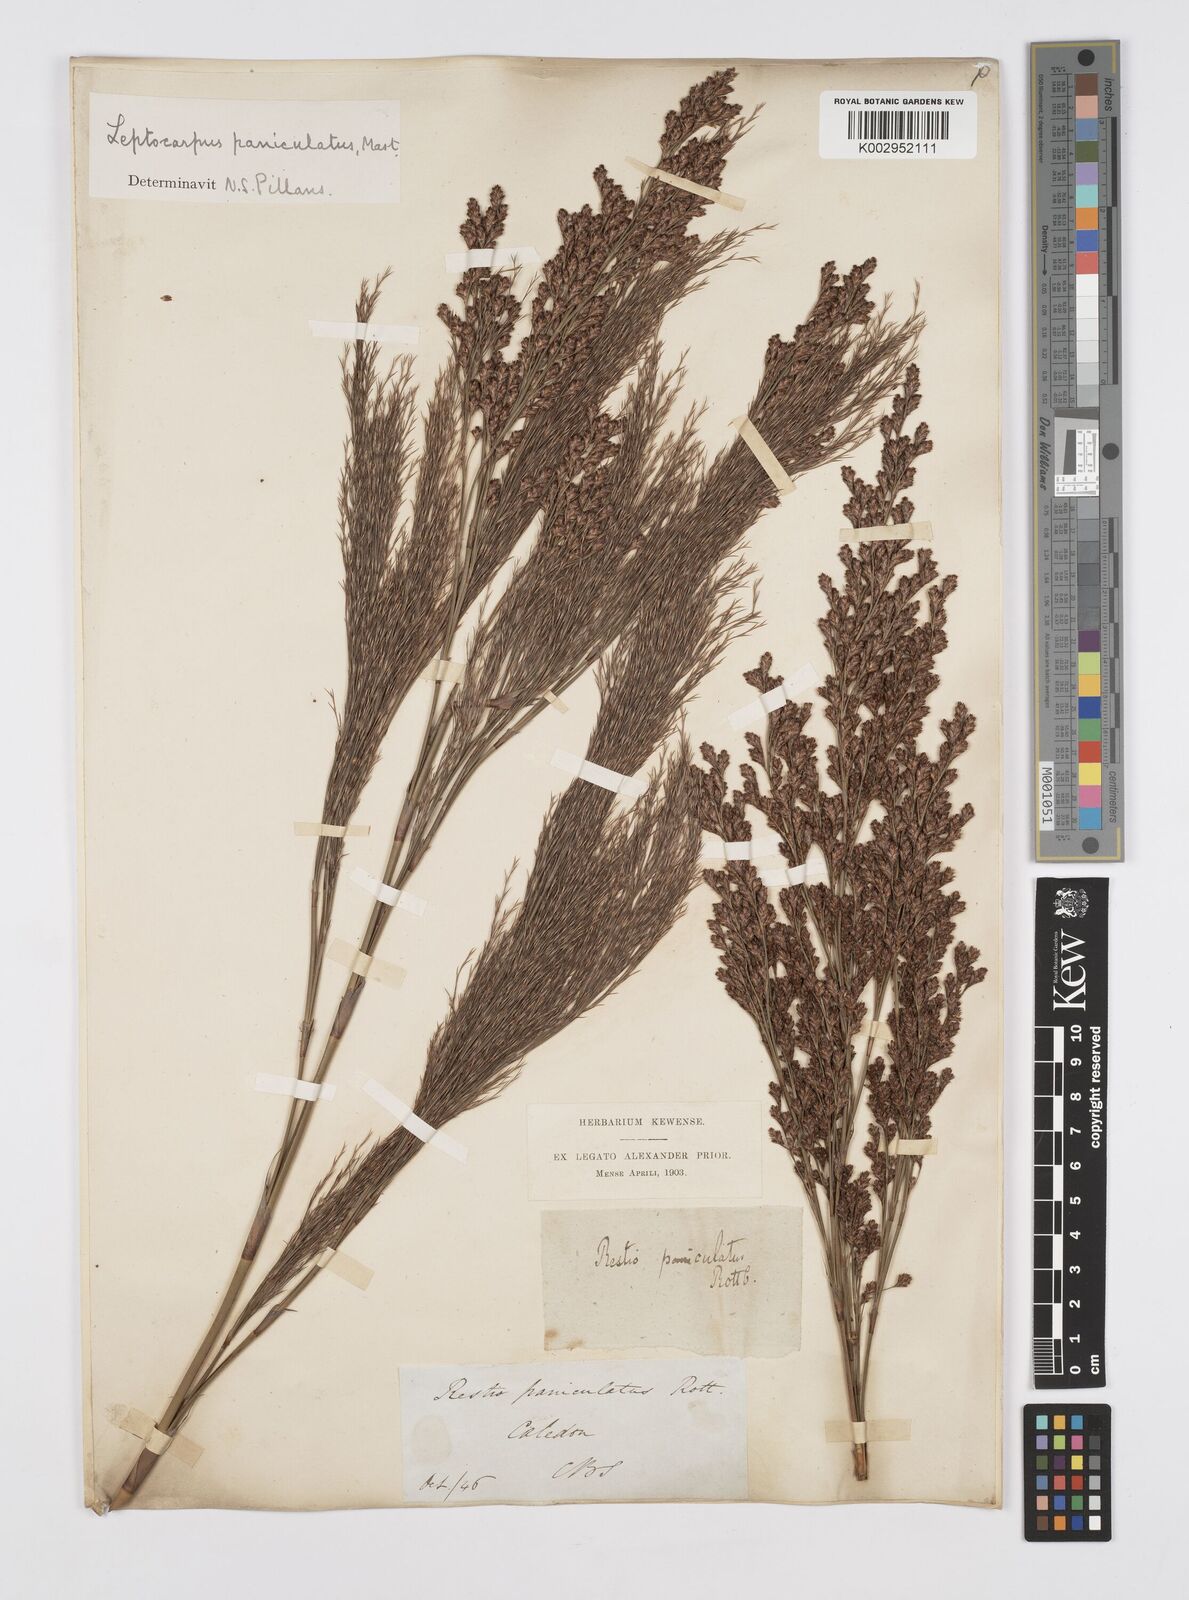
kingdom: Plantae
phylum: Tracheophyta
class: Liliopsida
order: Poales
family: Restionaceae
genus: Restio
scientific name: Restio paniculatus
